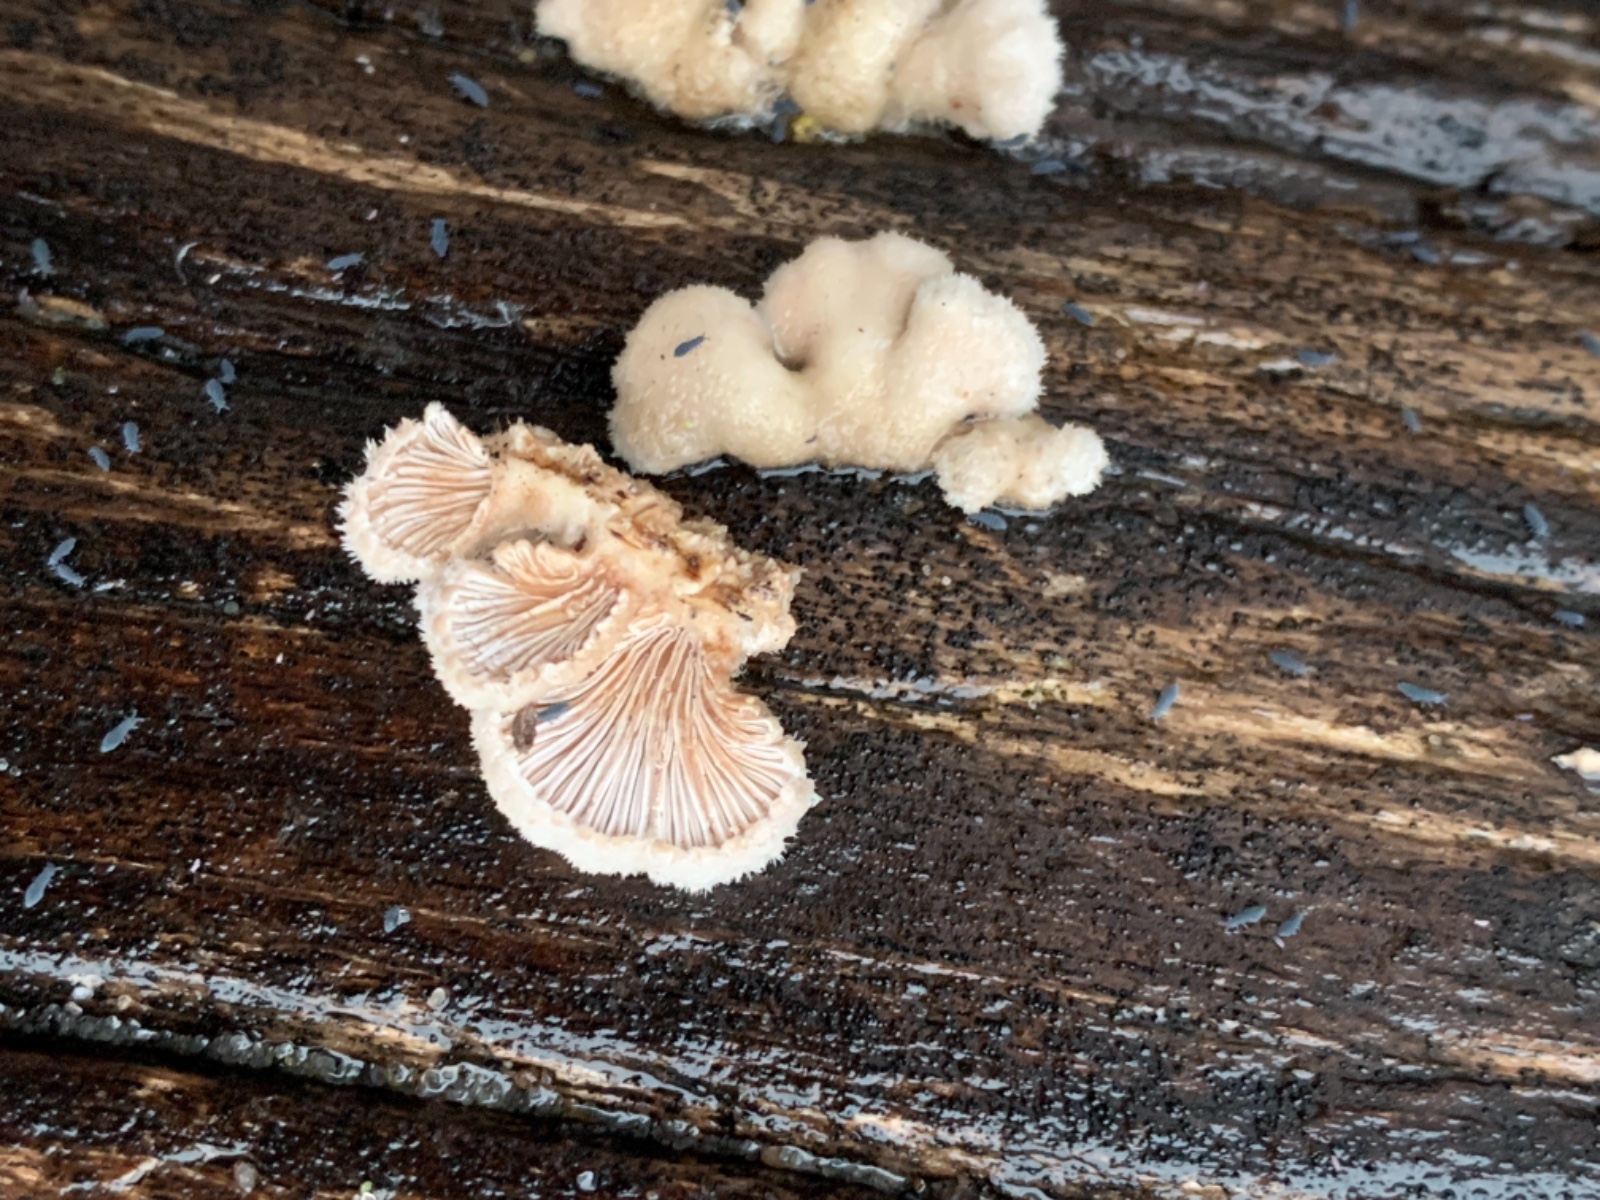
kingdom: Fungi
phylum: Basidiomycota
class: Agaricomycetes
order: Agaricales
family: Schizophyllaceae
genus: Schizophyllum
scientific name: Schizophyllum commune
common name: kløvblad
